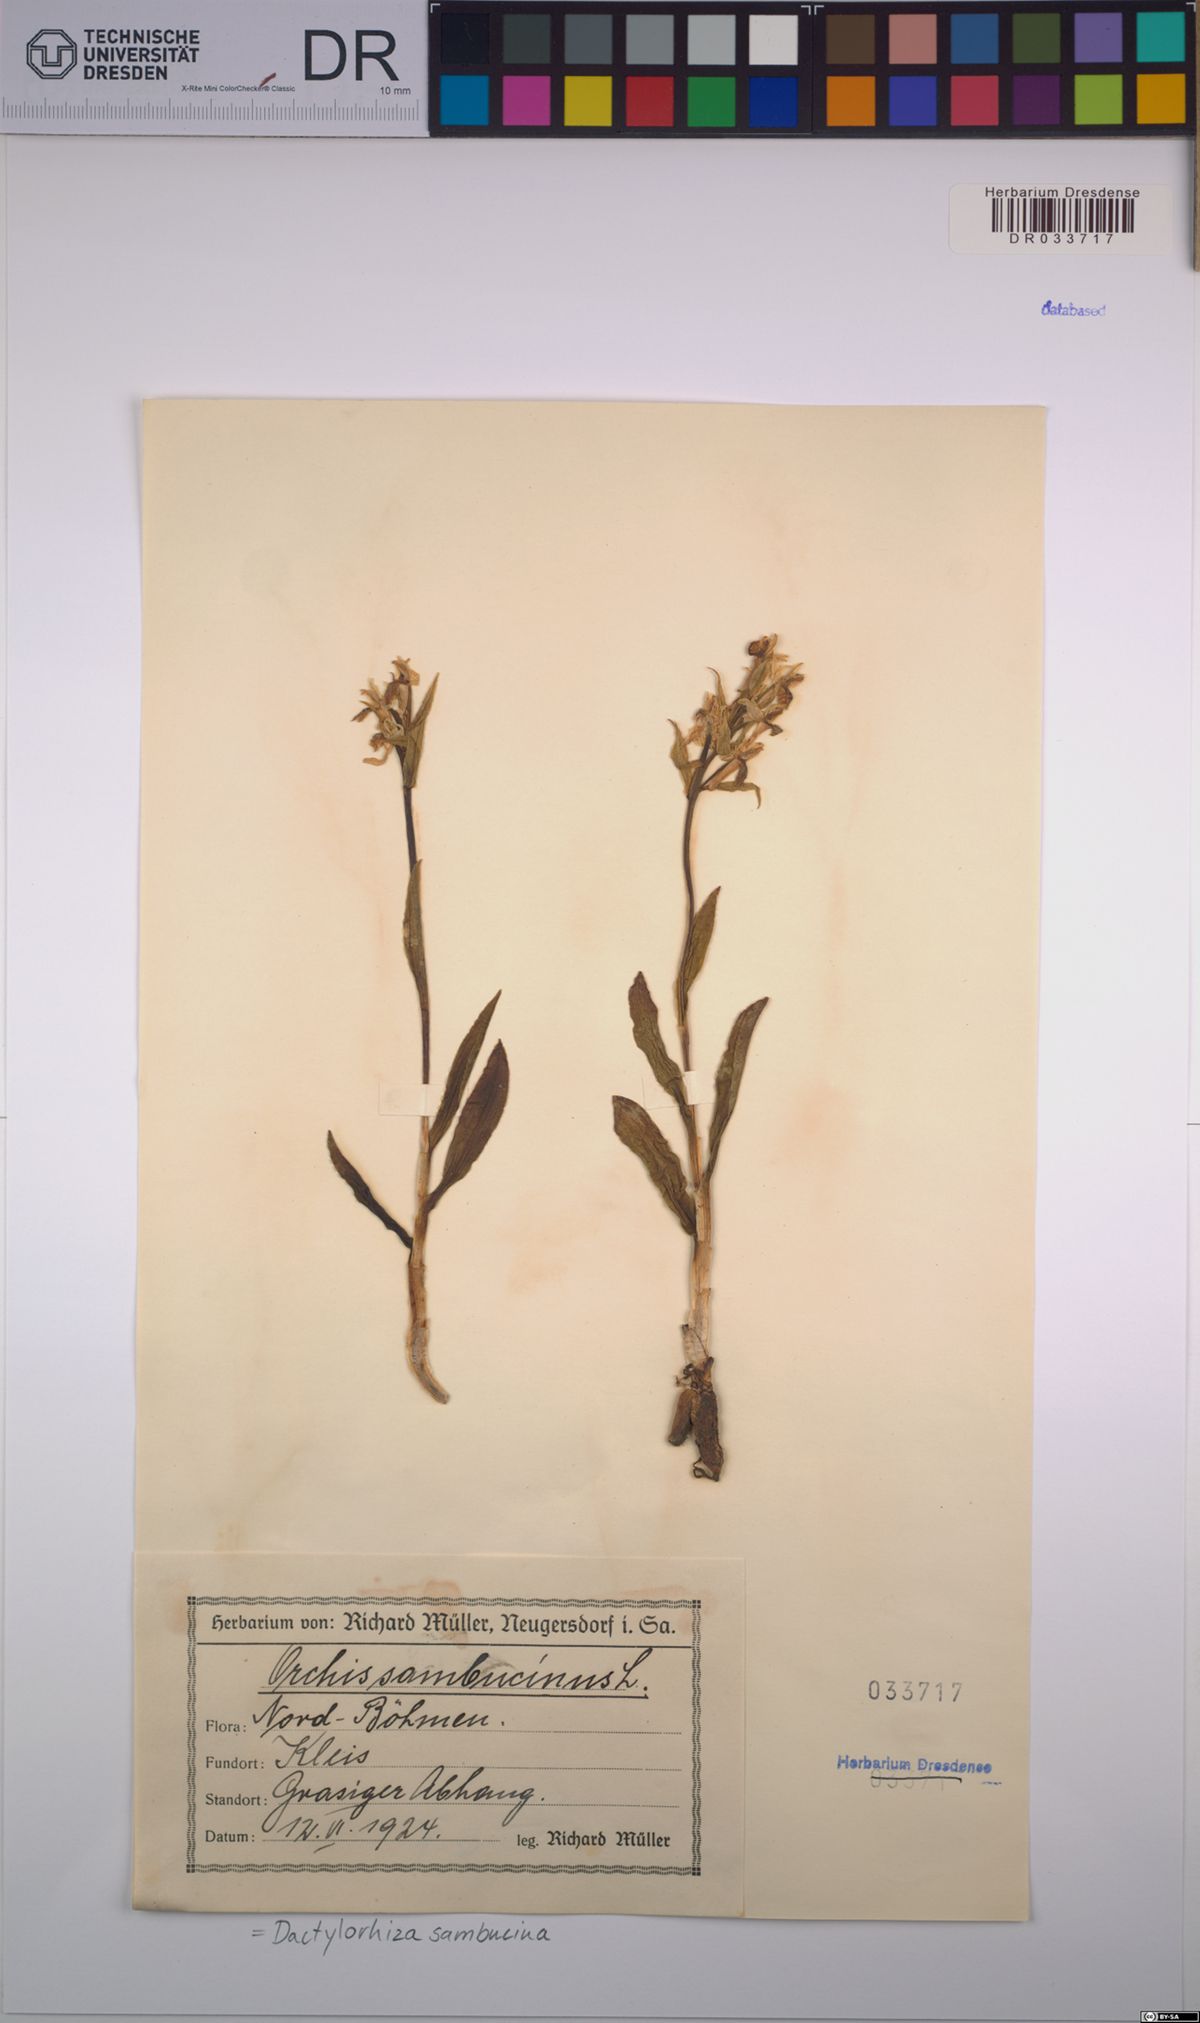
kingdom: Plantae
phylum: Tracheophyta
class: Liliopsida
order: Asparagales
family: Orchidaceae
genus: Dactylorhiza
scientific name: Dactylorhiza sambucina
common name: Elder-flowered orchid
